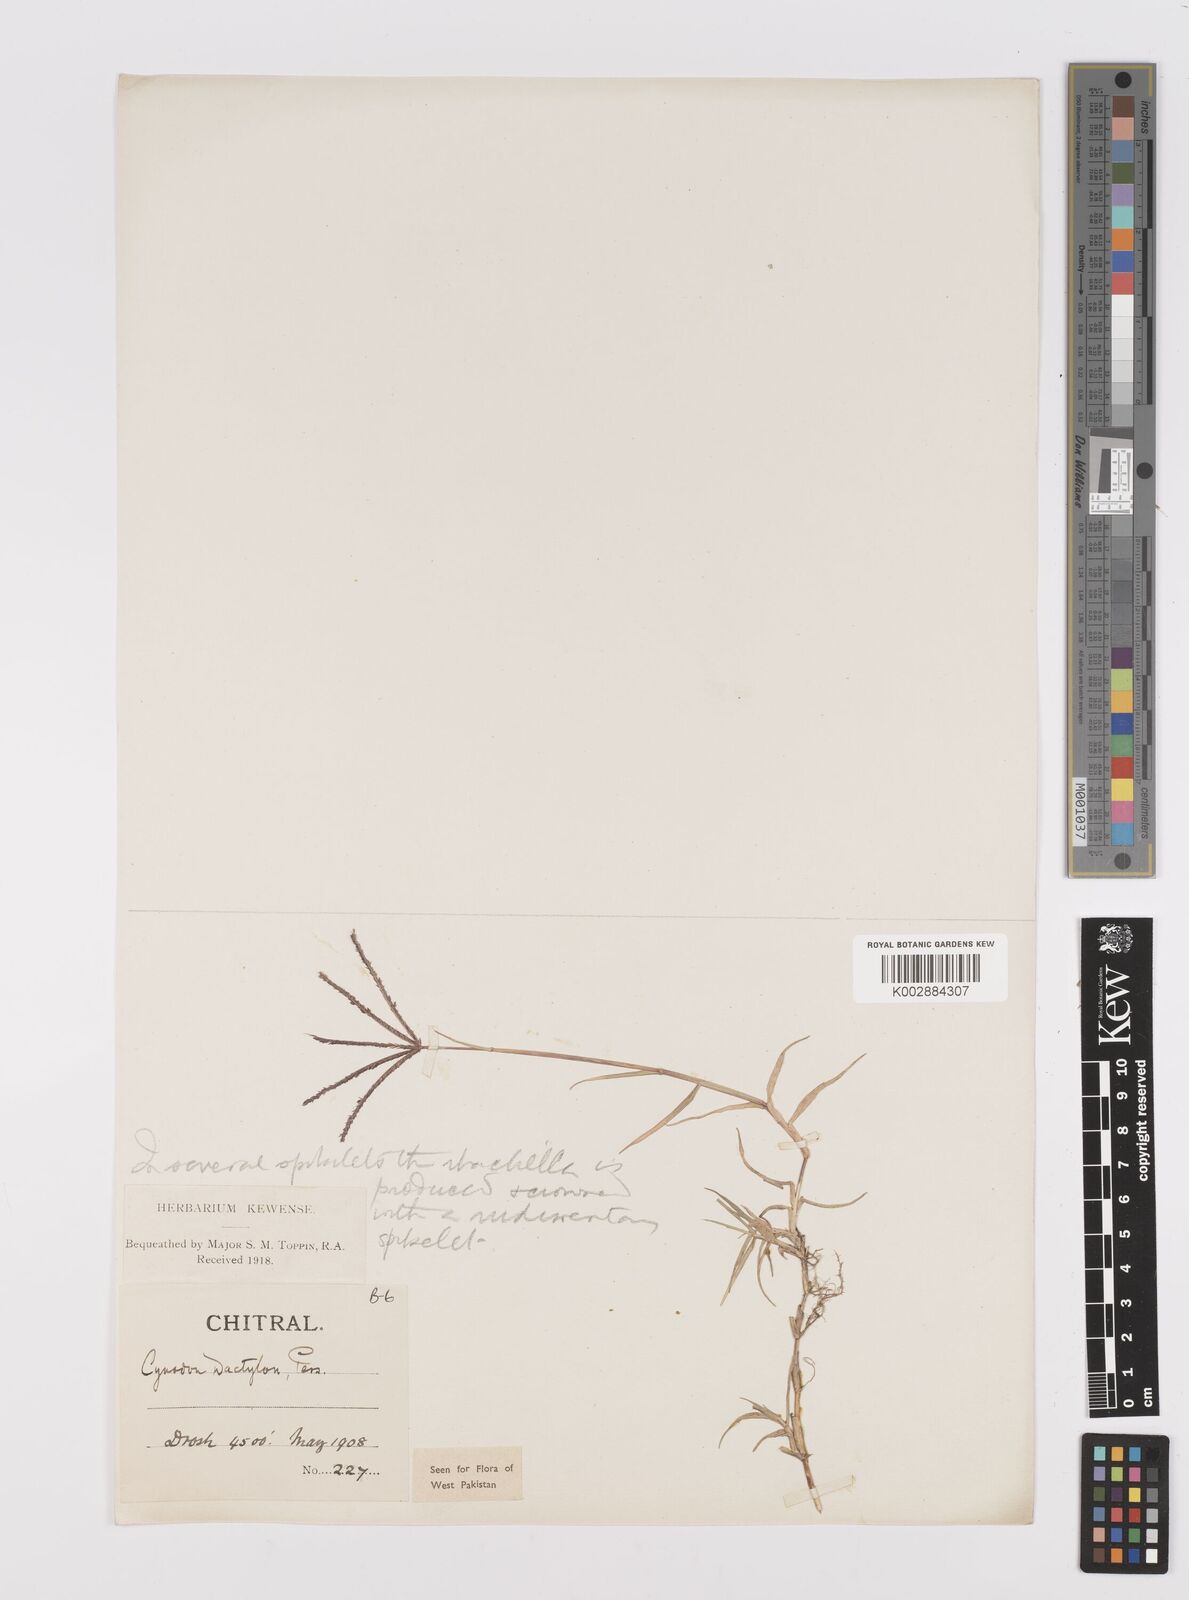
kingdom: Plantae
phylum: Tracheophyta
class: Liliopsida
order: Poales
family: Poaceae
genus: Cynodon
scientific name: Cynodon dactylon
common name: Bermuda grass
